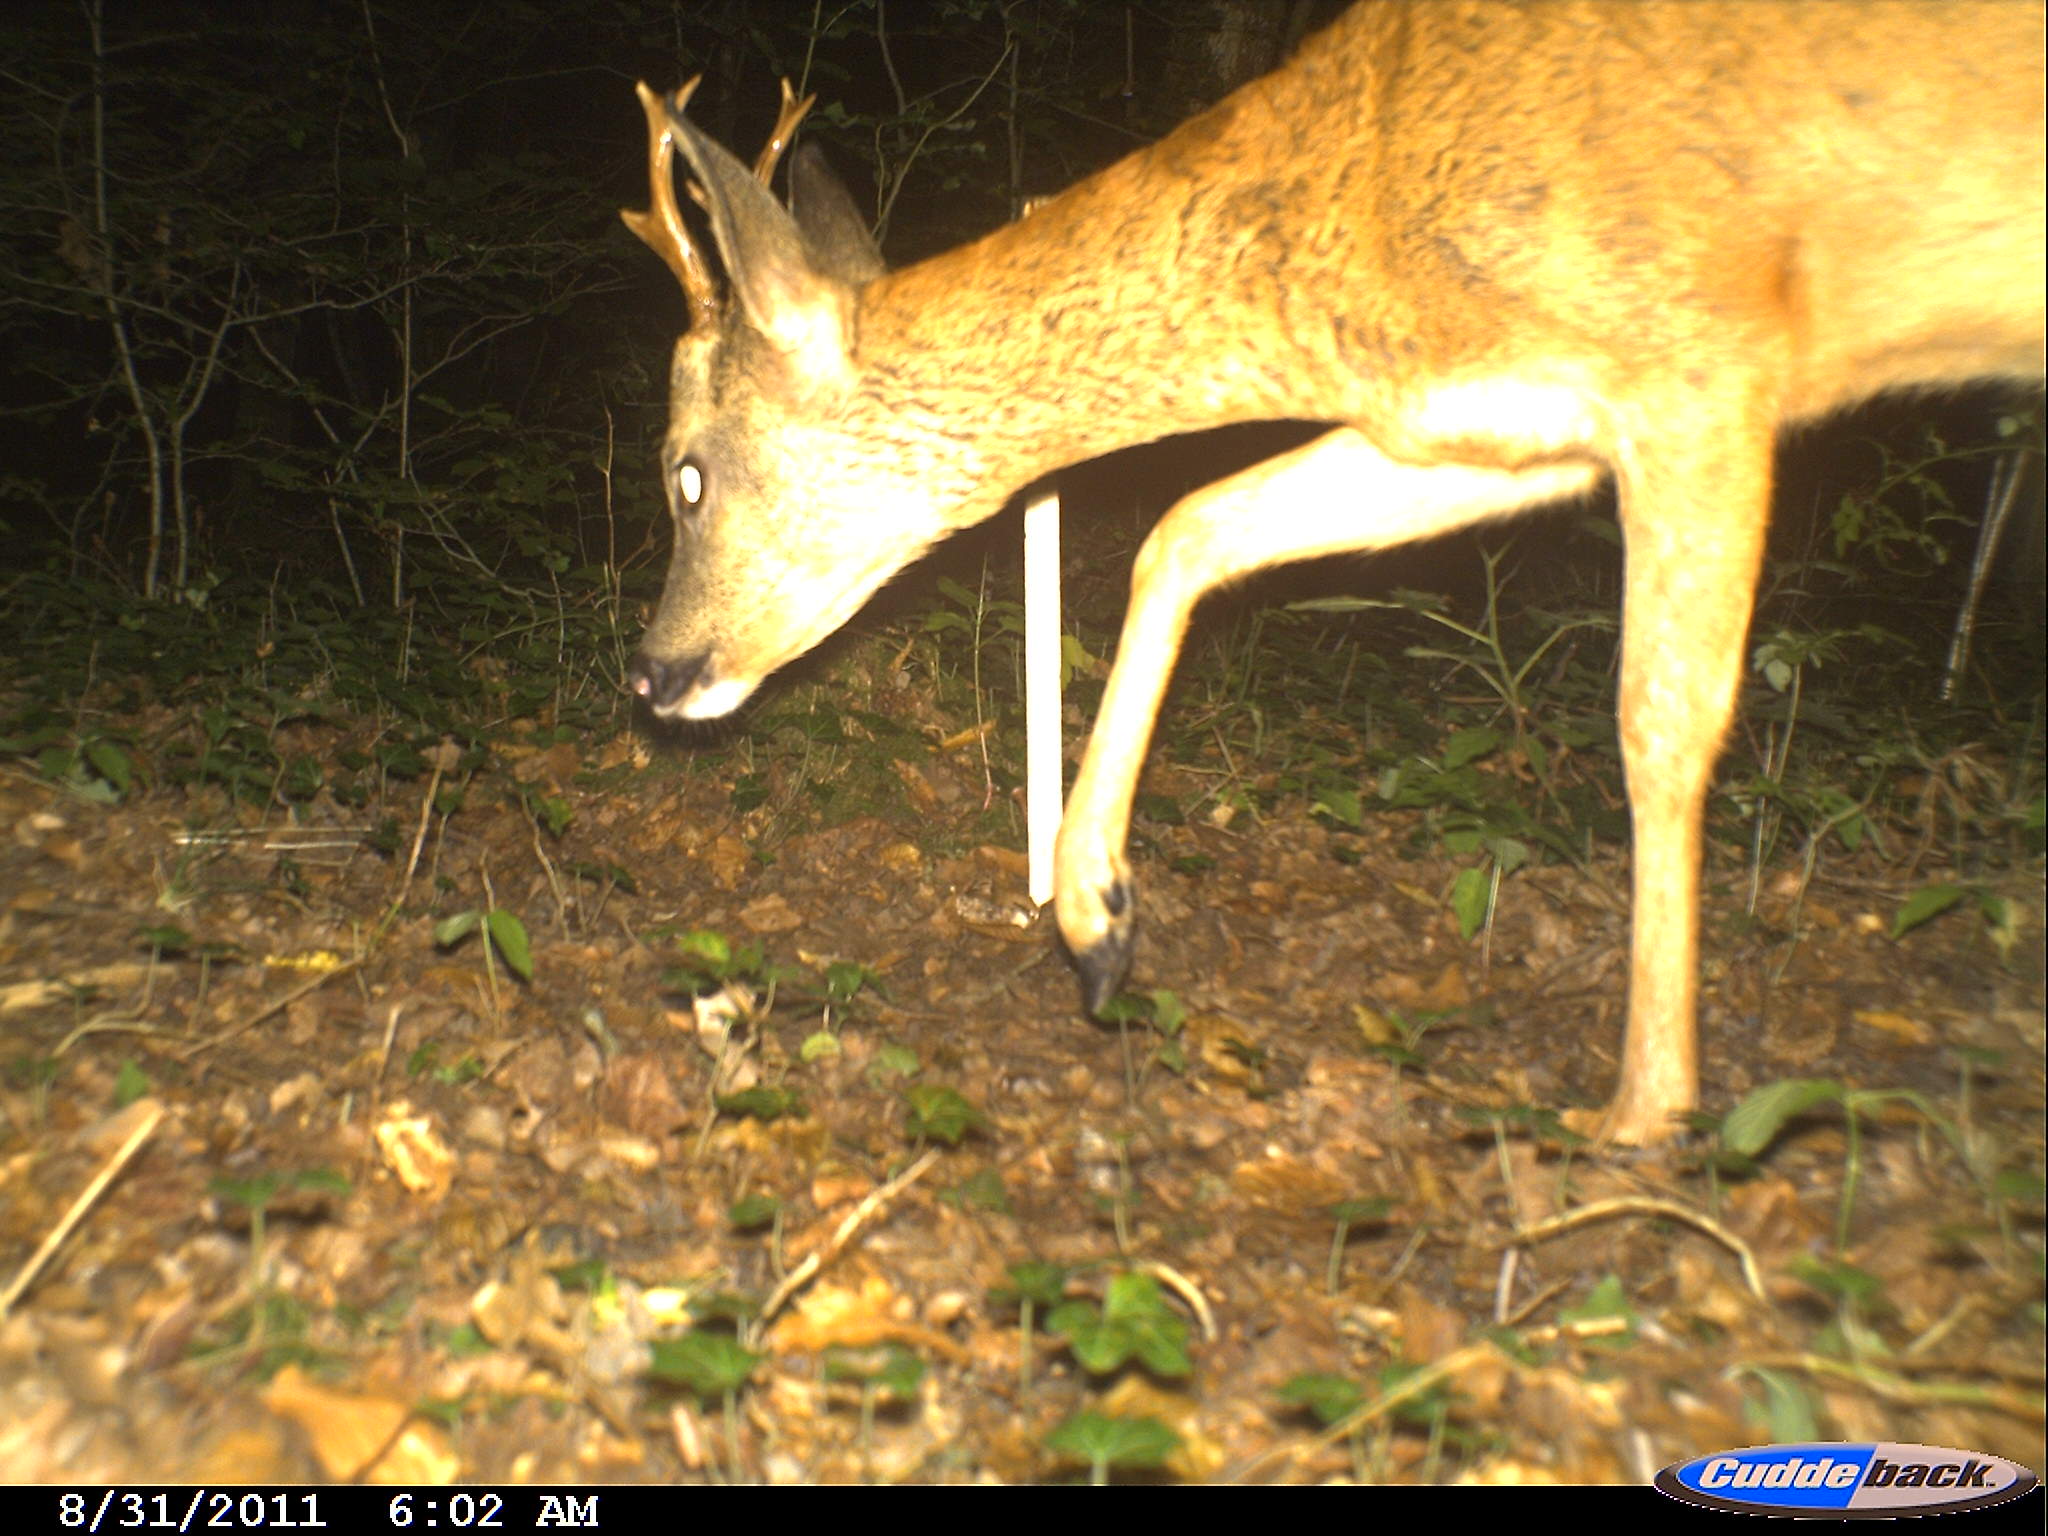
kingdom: Animalia
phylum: Chordata
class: Mammalia
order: Artiodactyla
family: Cervidae
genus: Capreolus
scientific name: Capreolus capreolus
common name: Western roe deer
